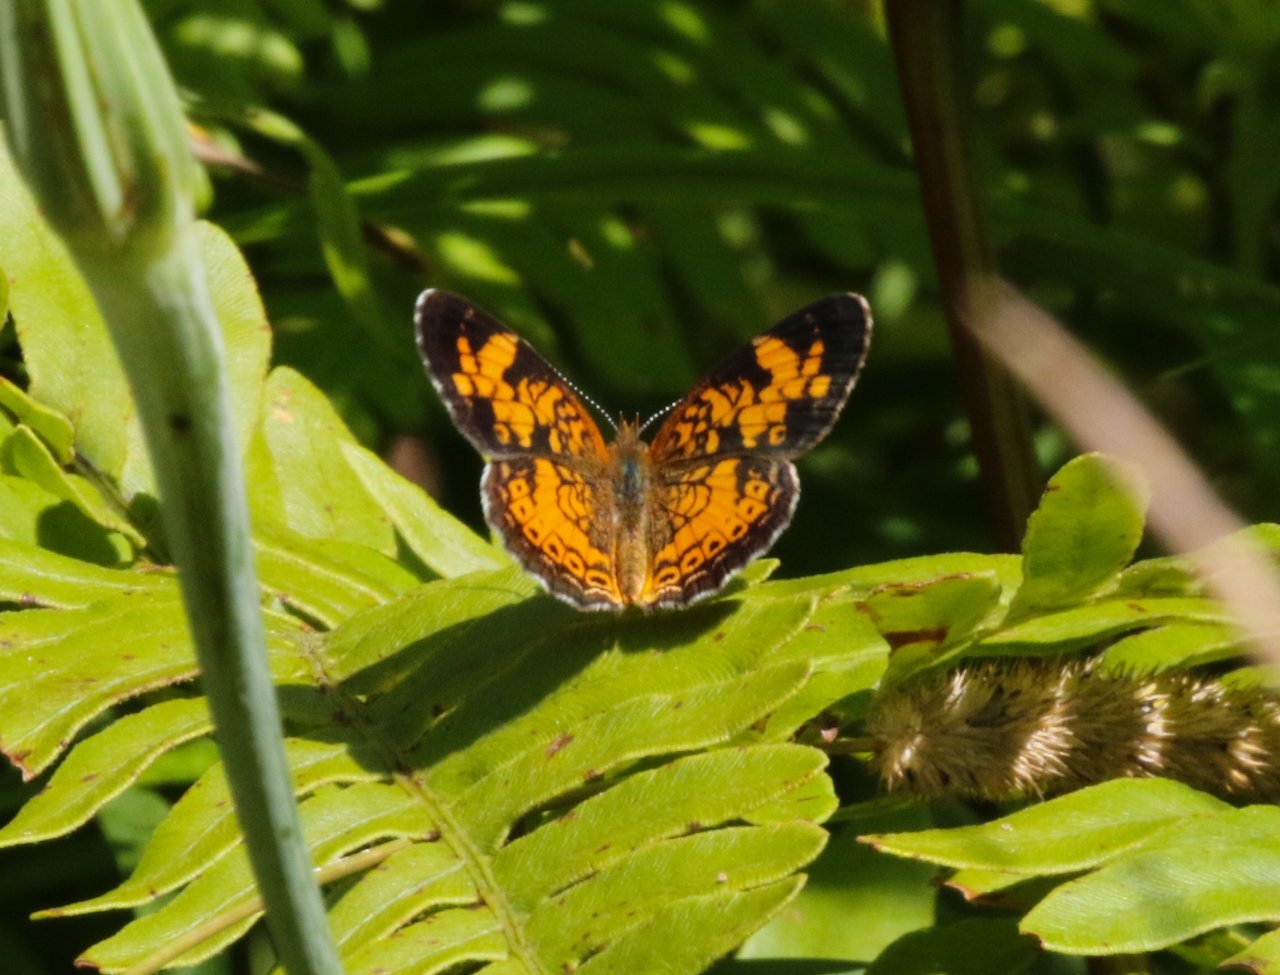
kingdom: Animalia
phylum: Arthropoda
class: Insecta
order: Lepidoptera
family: Nymphalidae
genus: Phyciodes
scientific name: Phyciodes tharos
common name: Northern Crescent
